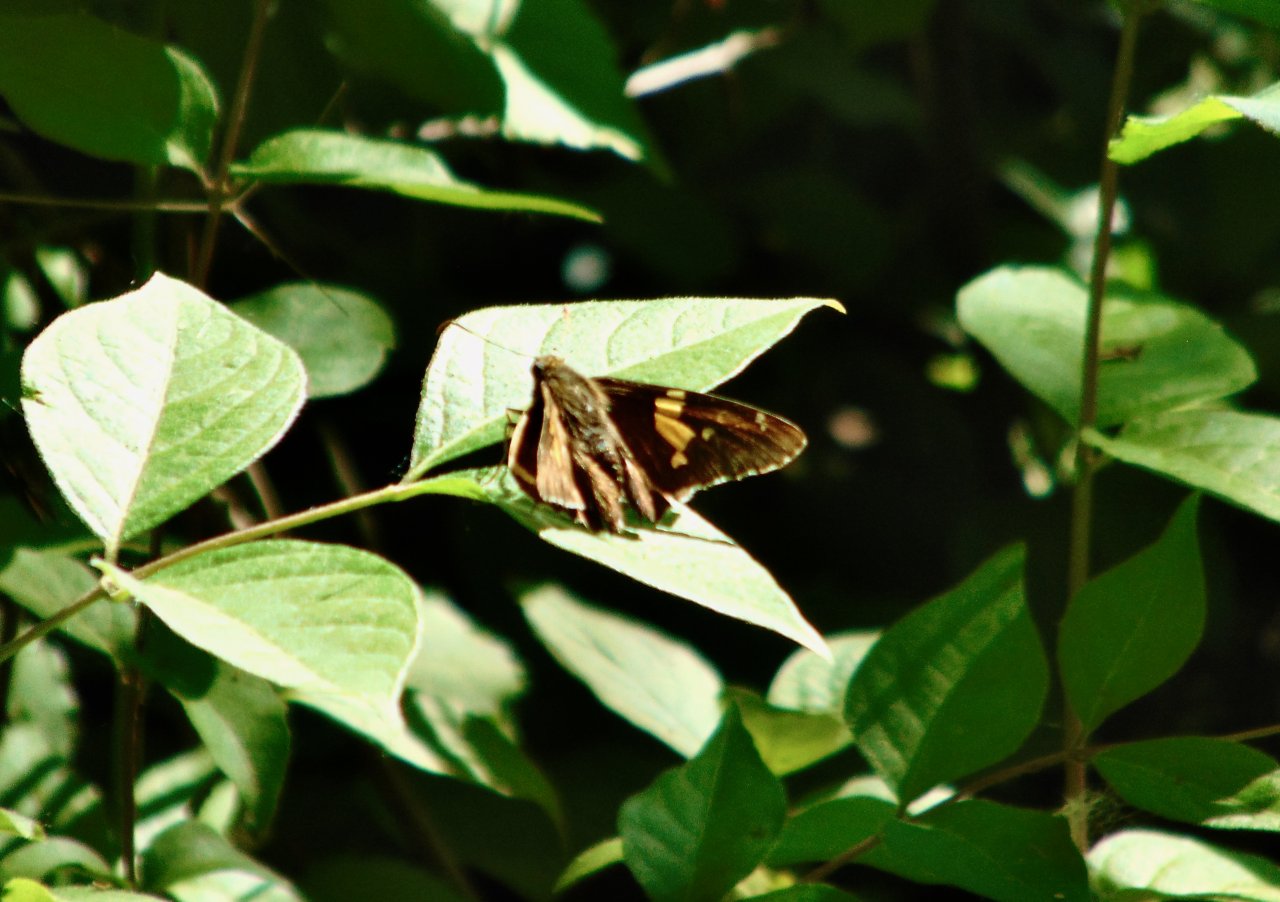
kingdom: Animalia
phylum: Arthropoda
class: Insecta
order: Lepidoptera
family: Hesperiidae
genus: Epargyreus
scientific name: Epargyreus clarus
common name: Silver-spotted Skipper
